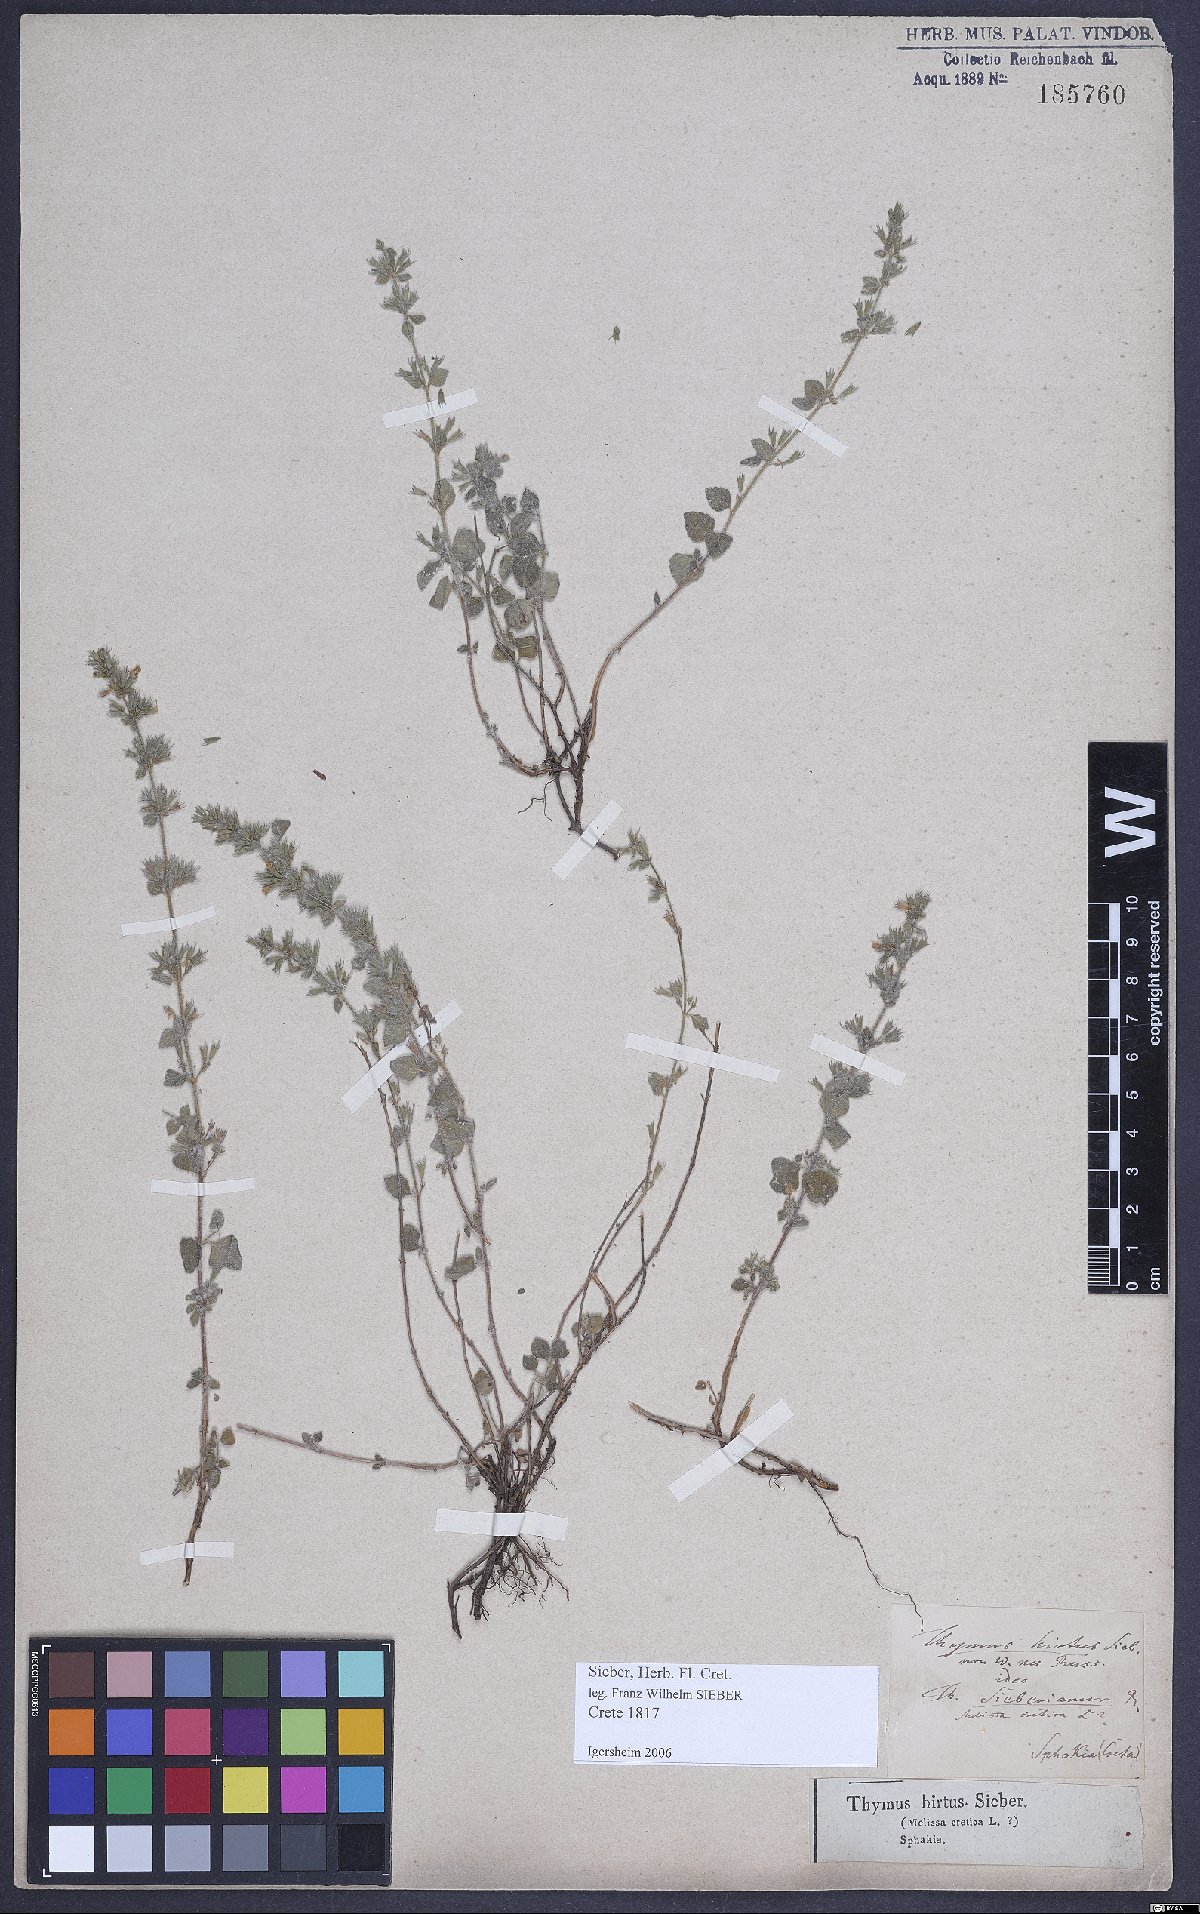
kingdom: Plantae
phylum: Tracheophyta
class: Magnoliopsida
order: Lamiales
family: Lamiaceae
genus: Clinopodium
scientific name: Clinopodium creticum
